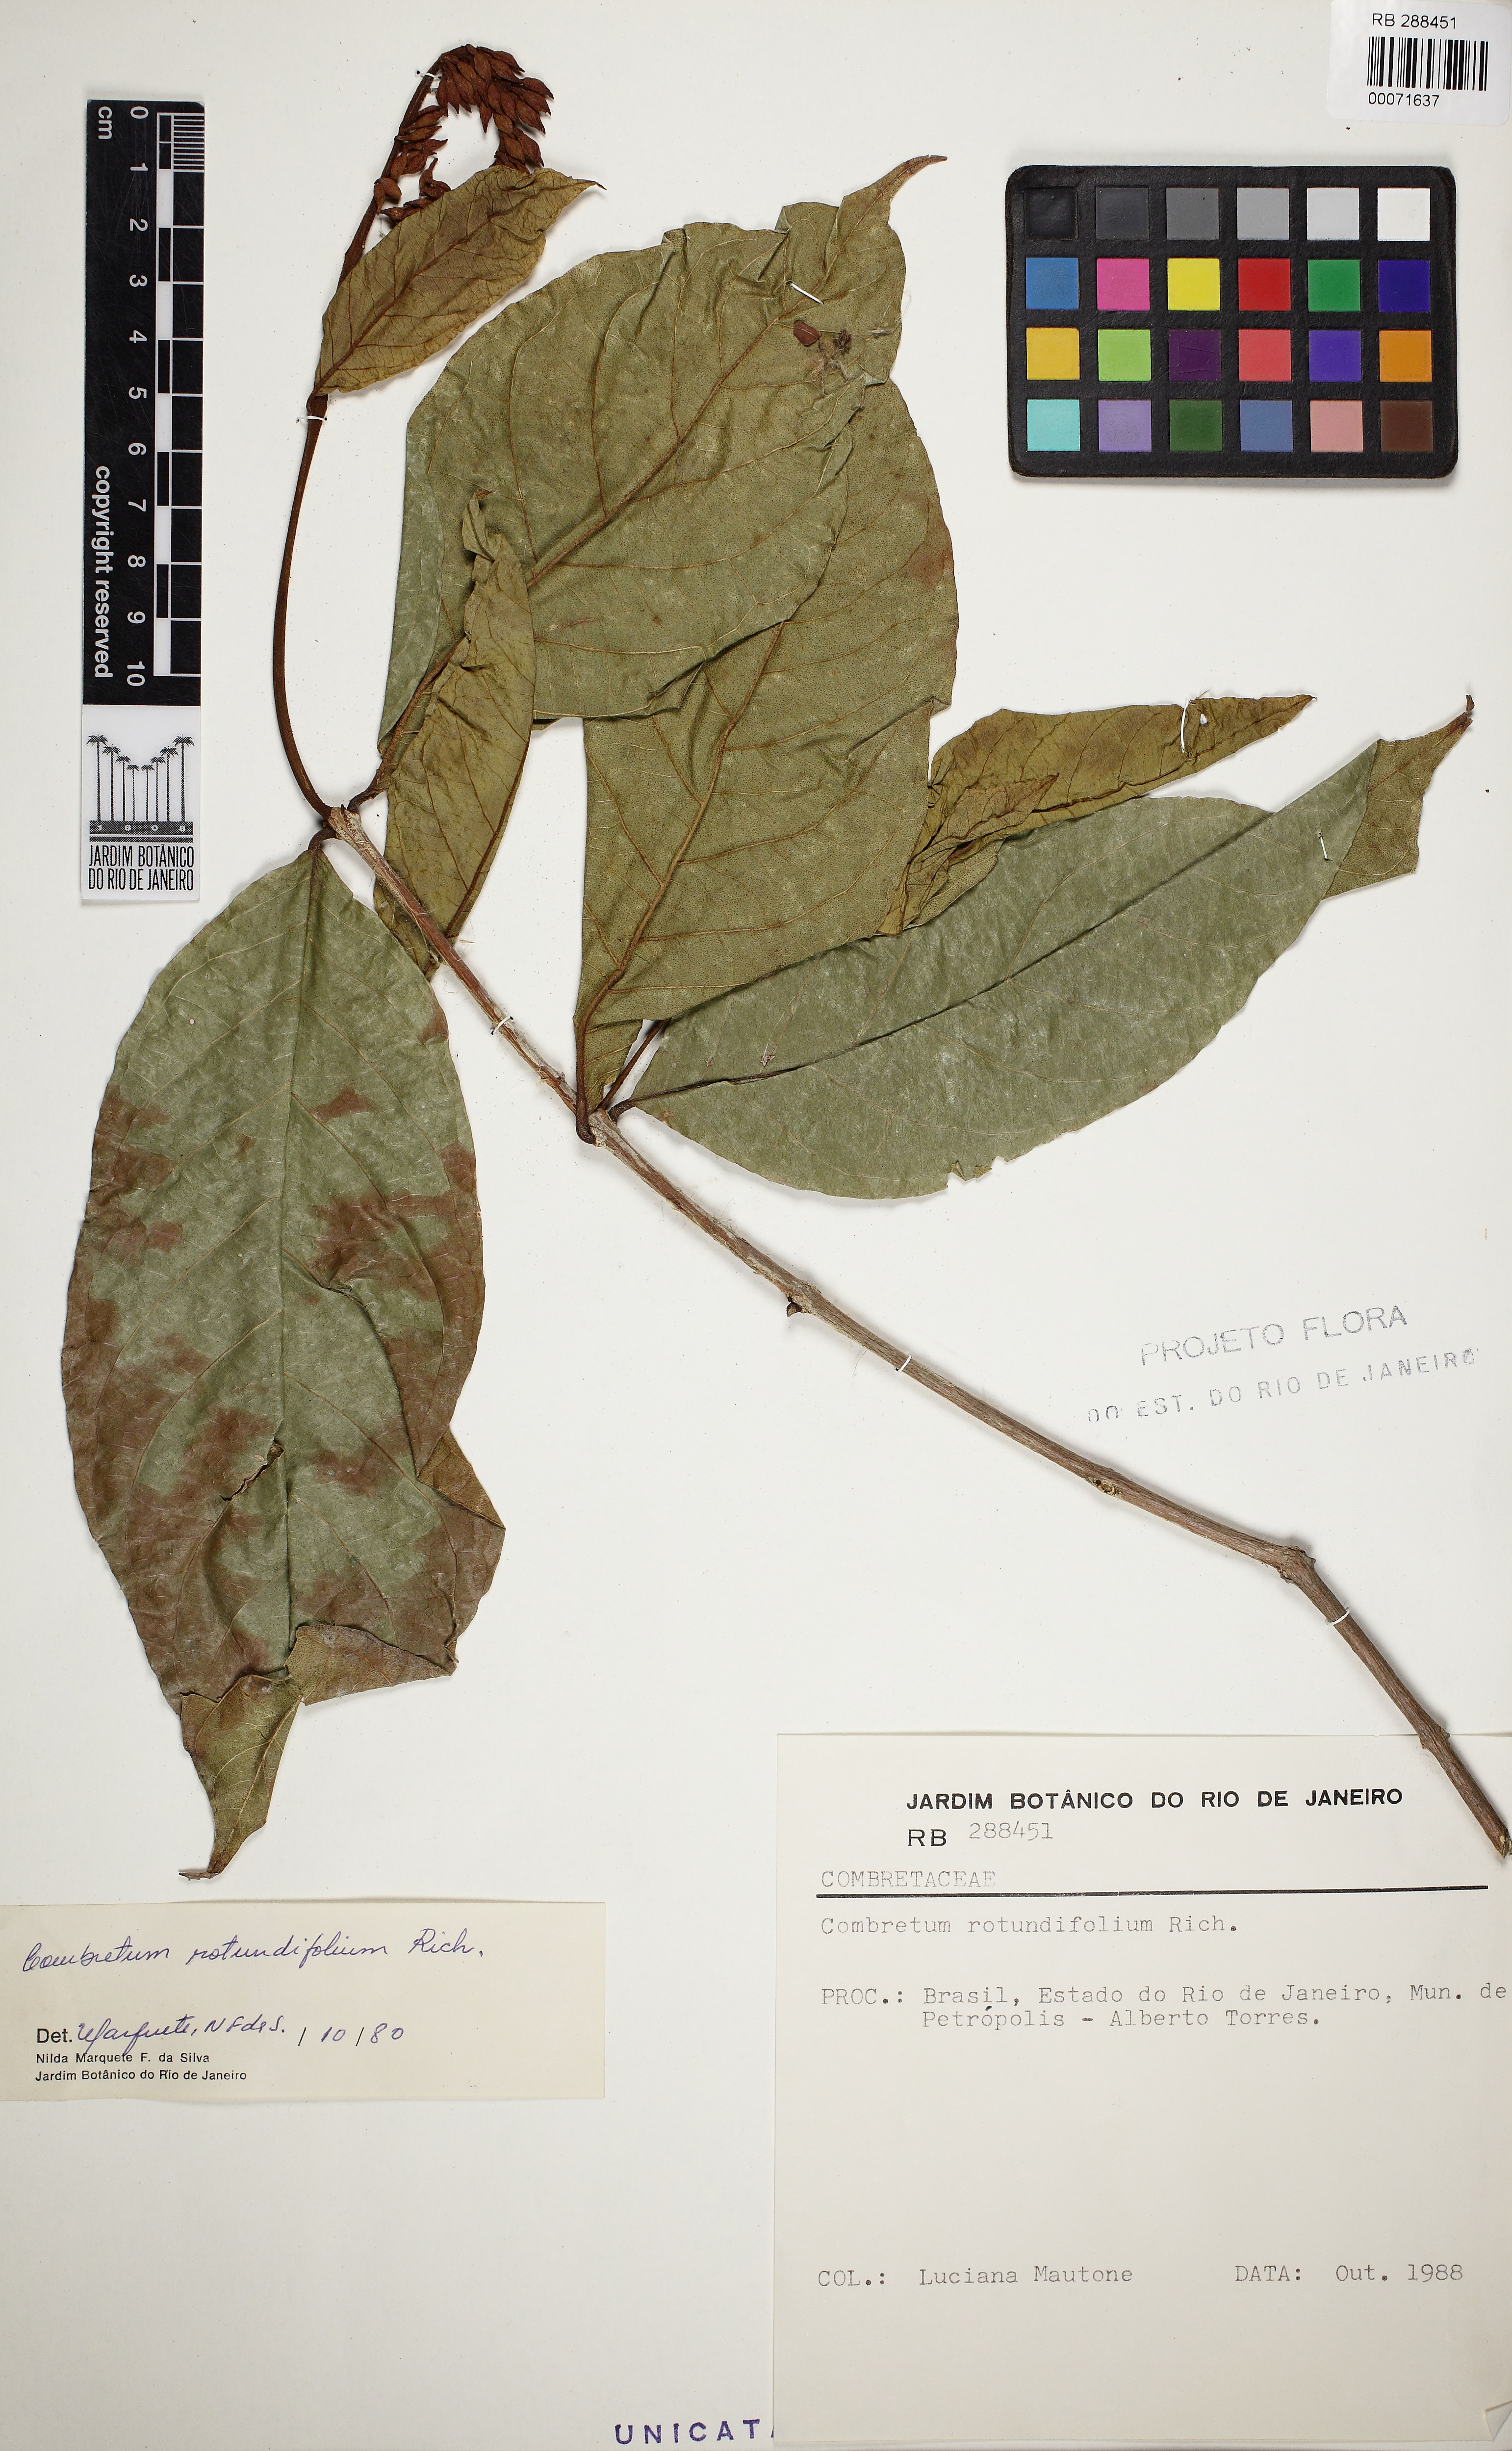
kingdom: Plantae
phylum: Tracheophyta
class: Magnoliopsida
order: Myrtales
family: Combretaceae
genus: Combretum
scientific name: Combretum rotundifolium
